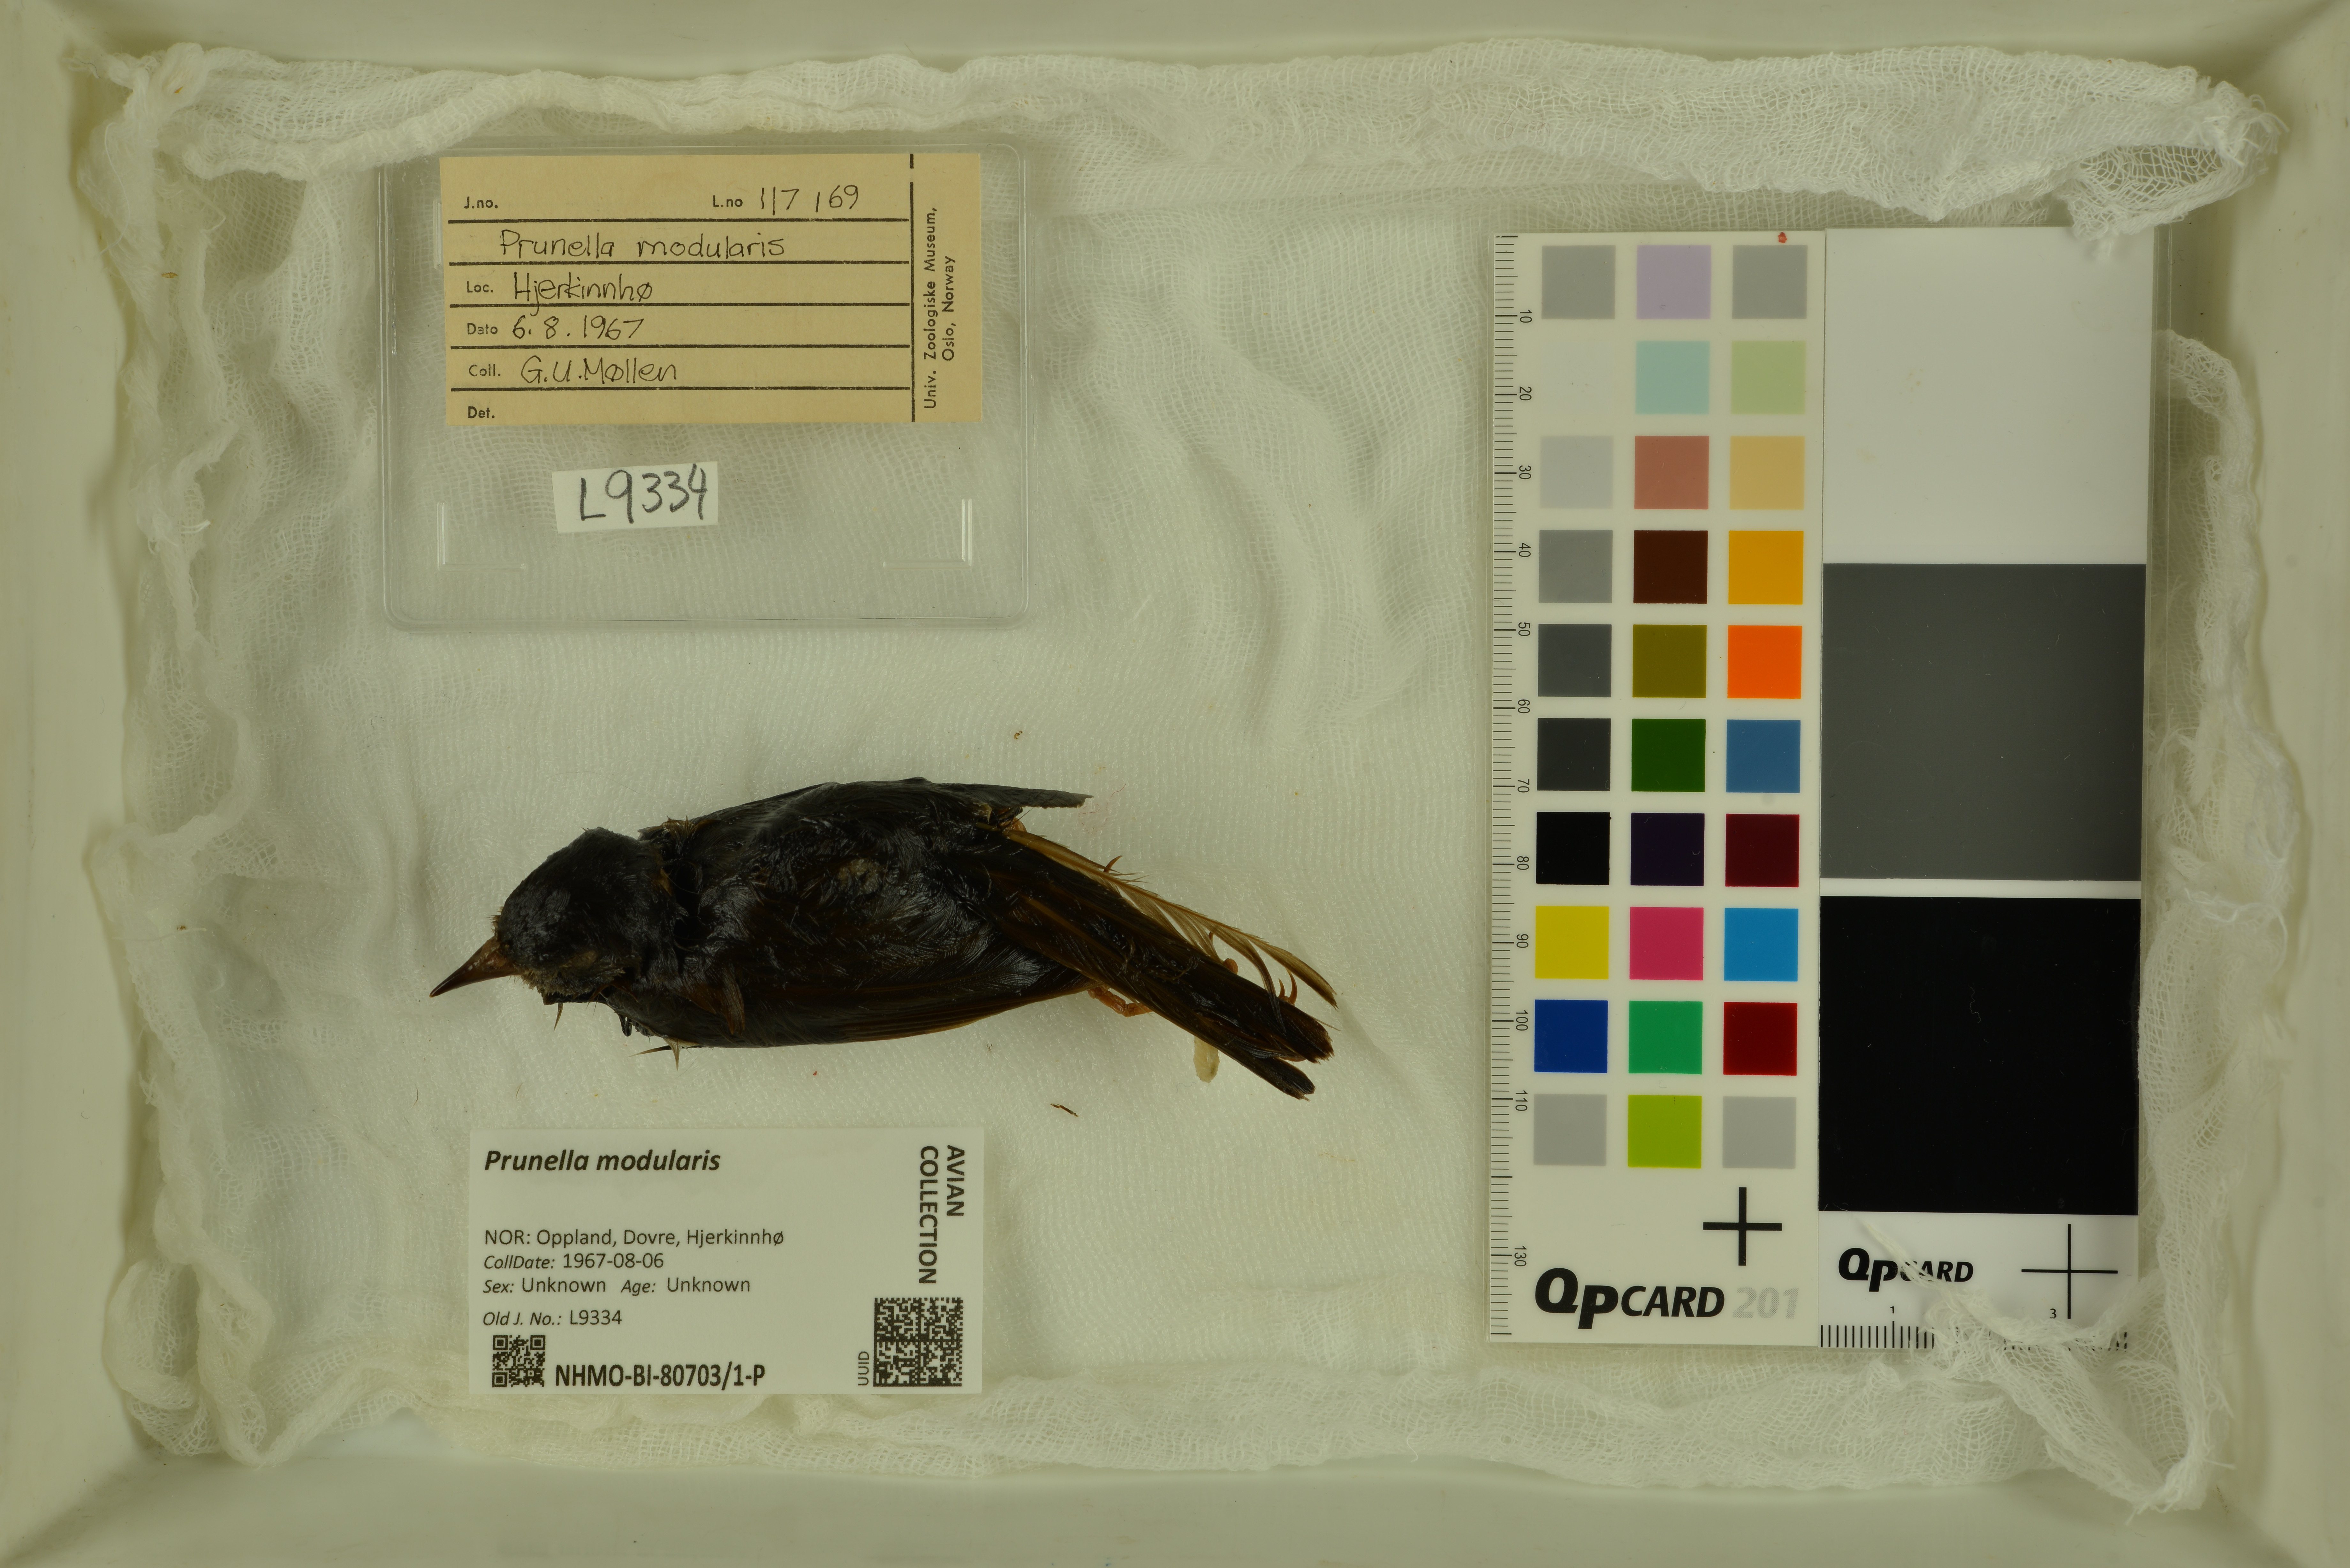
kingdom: Animalia
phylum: Chordata
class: Aves
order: Passeriformes
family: Prunellidae
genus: Prunella
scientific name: Prunella modularis
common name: Dunnock
